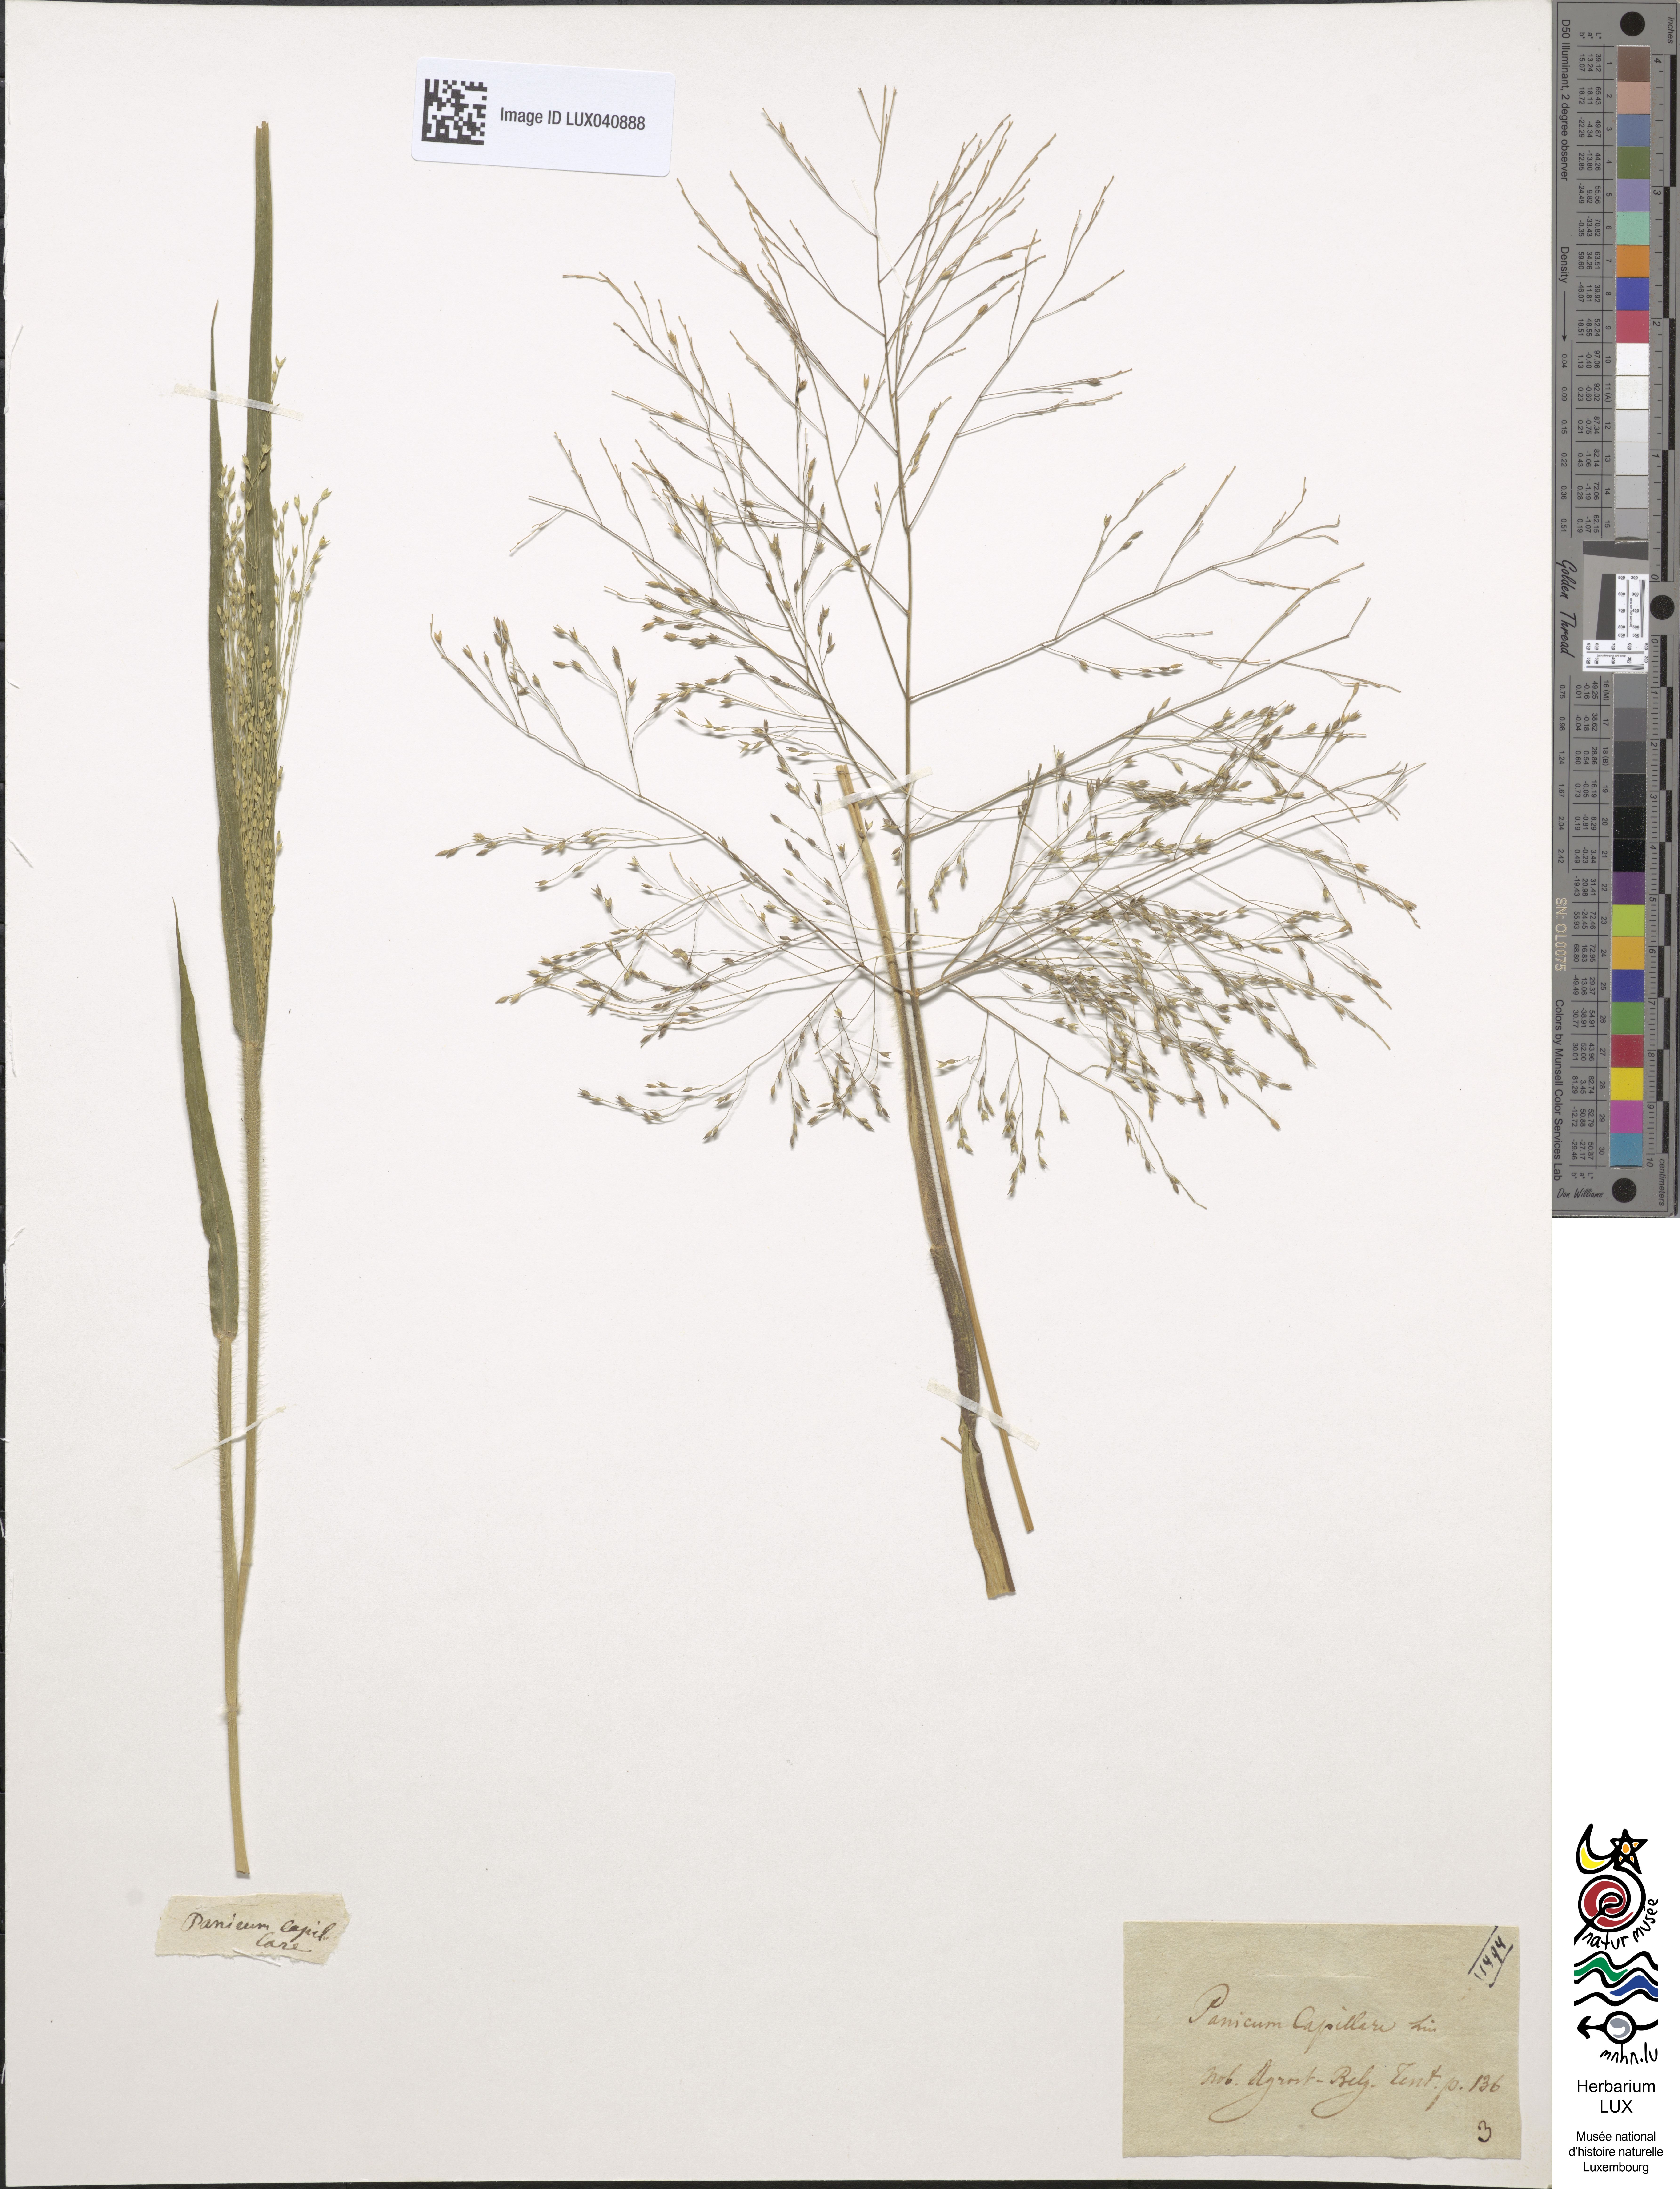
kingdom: Plantae
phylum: Tracheophyta
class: Liliopsida
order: Poales
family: Poaceae
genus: Panicum
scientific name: Panicum capillare
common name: Witch-grass
